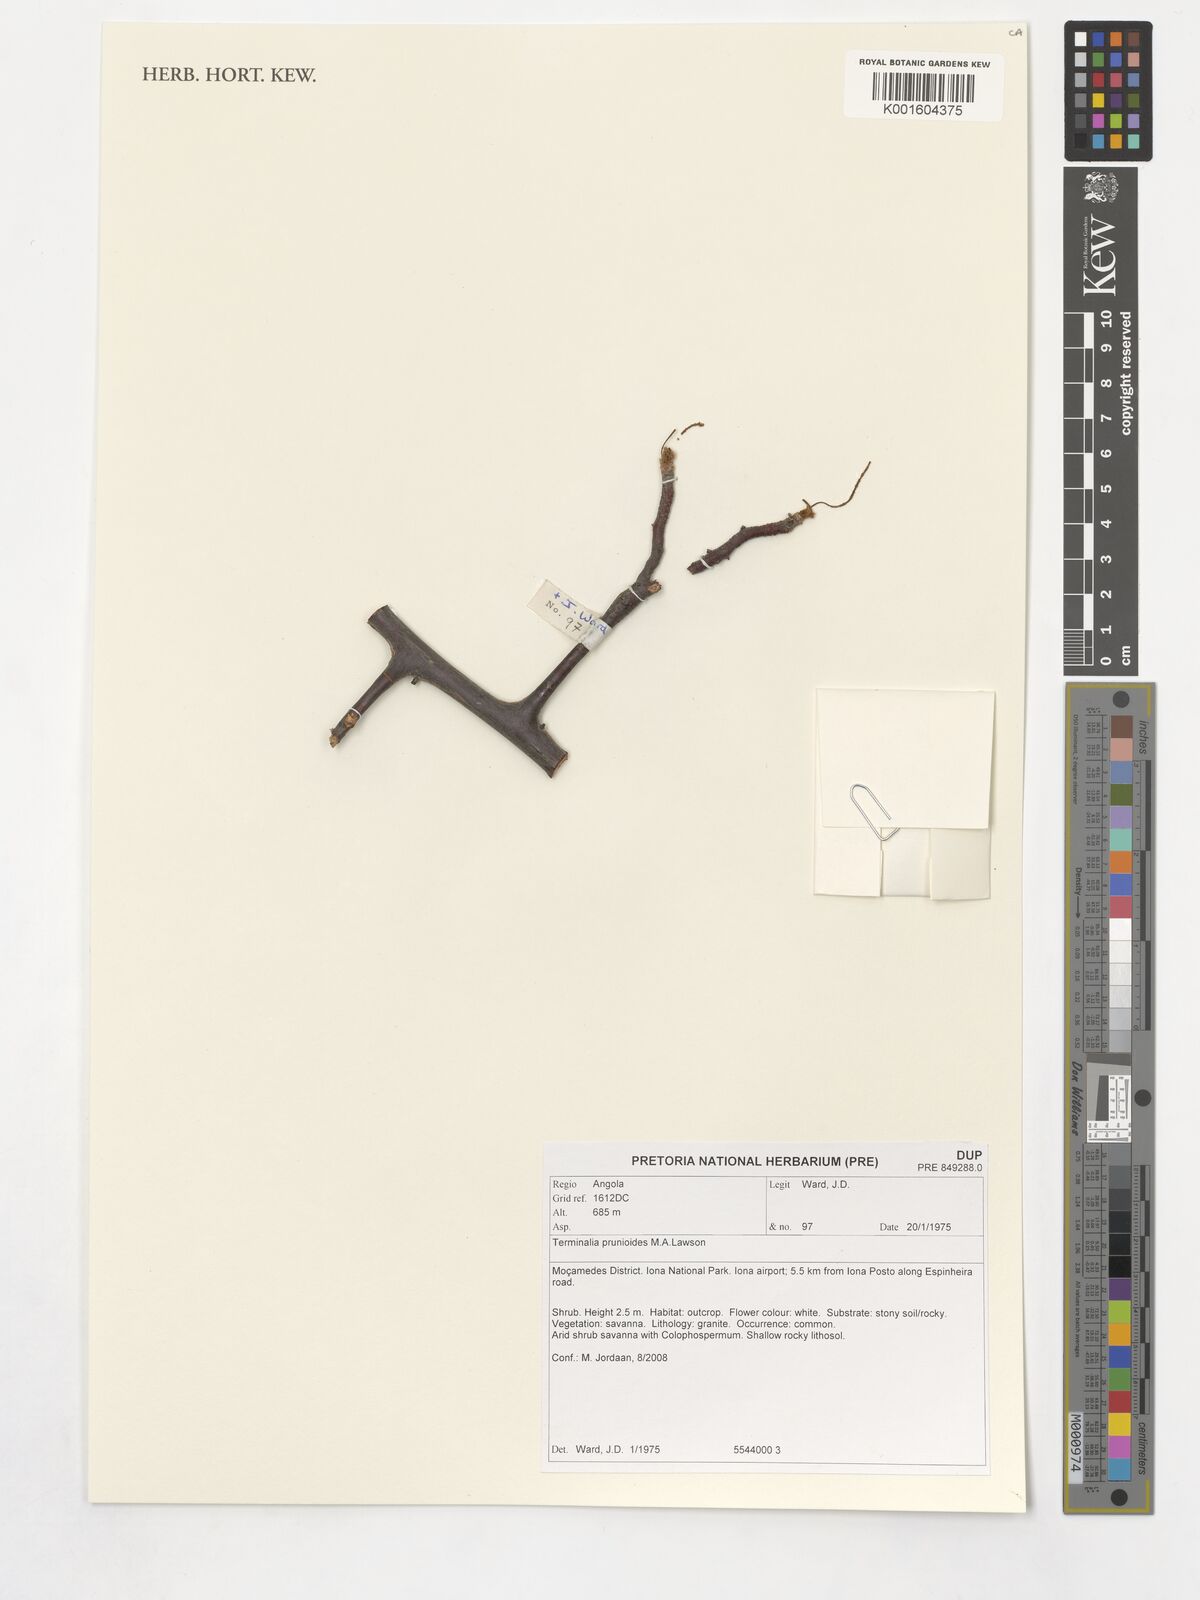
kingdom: Plantae
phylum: Tracheophyta
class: Magnoliopsida
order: Myrtales
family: Combretaceae
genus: Terminalia
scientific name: Terminalia prunioides
